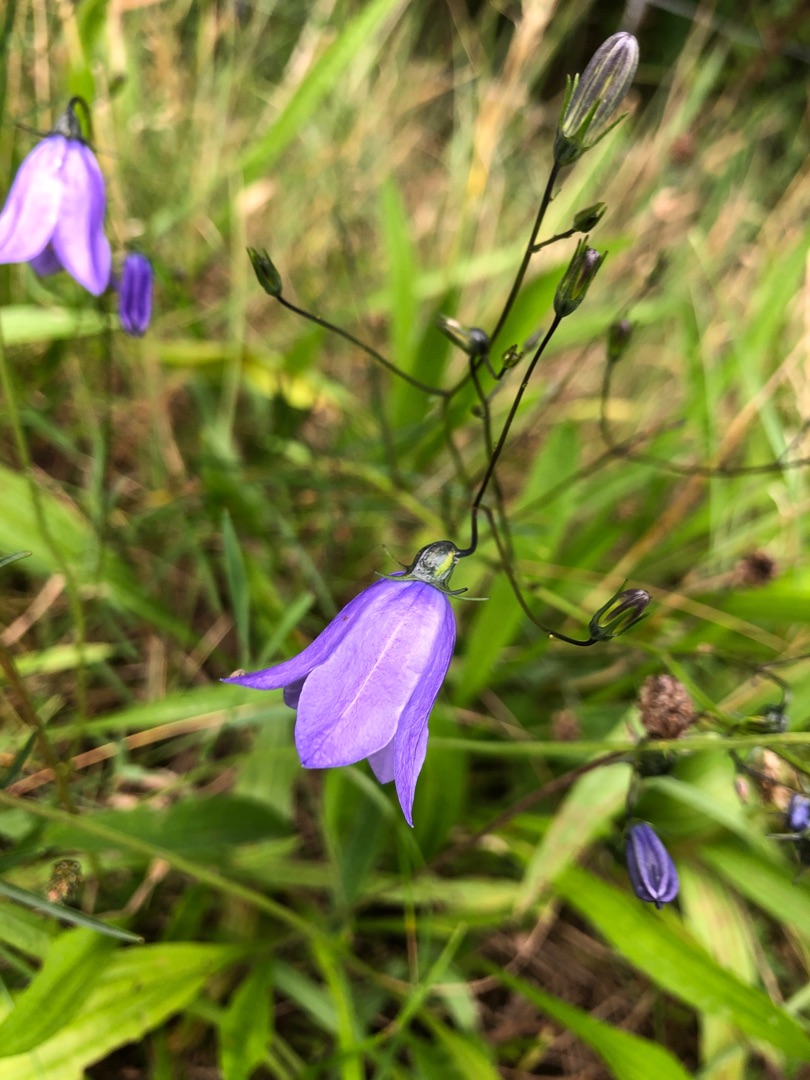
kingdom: Plantae
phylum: Tracheophyta
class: Magnoliopsida
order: Asterales
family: Campanulaceae
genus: Campanula
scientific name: Campanula rotundifolia
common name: Liden klokke
